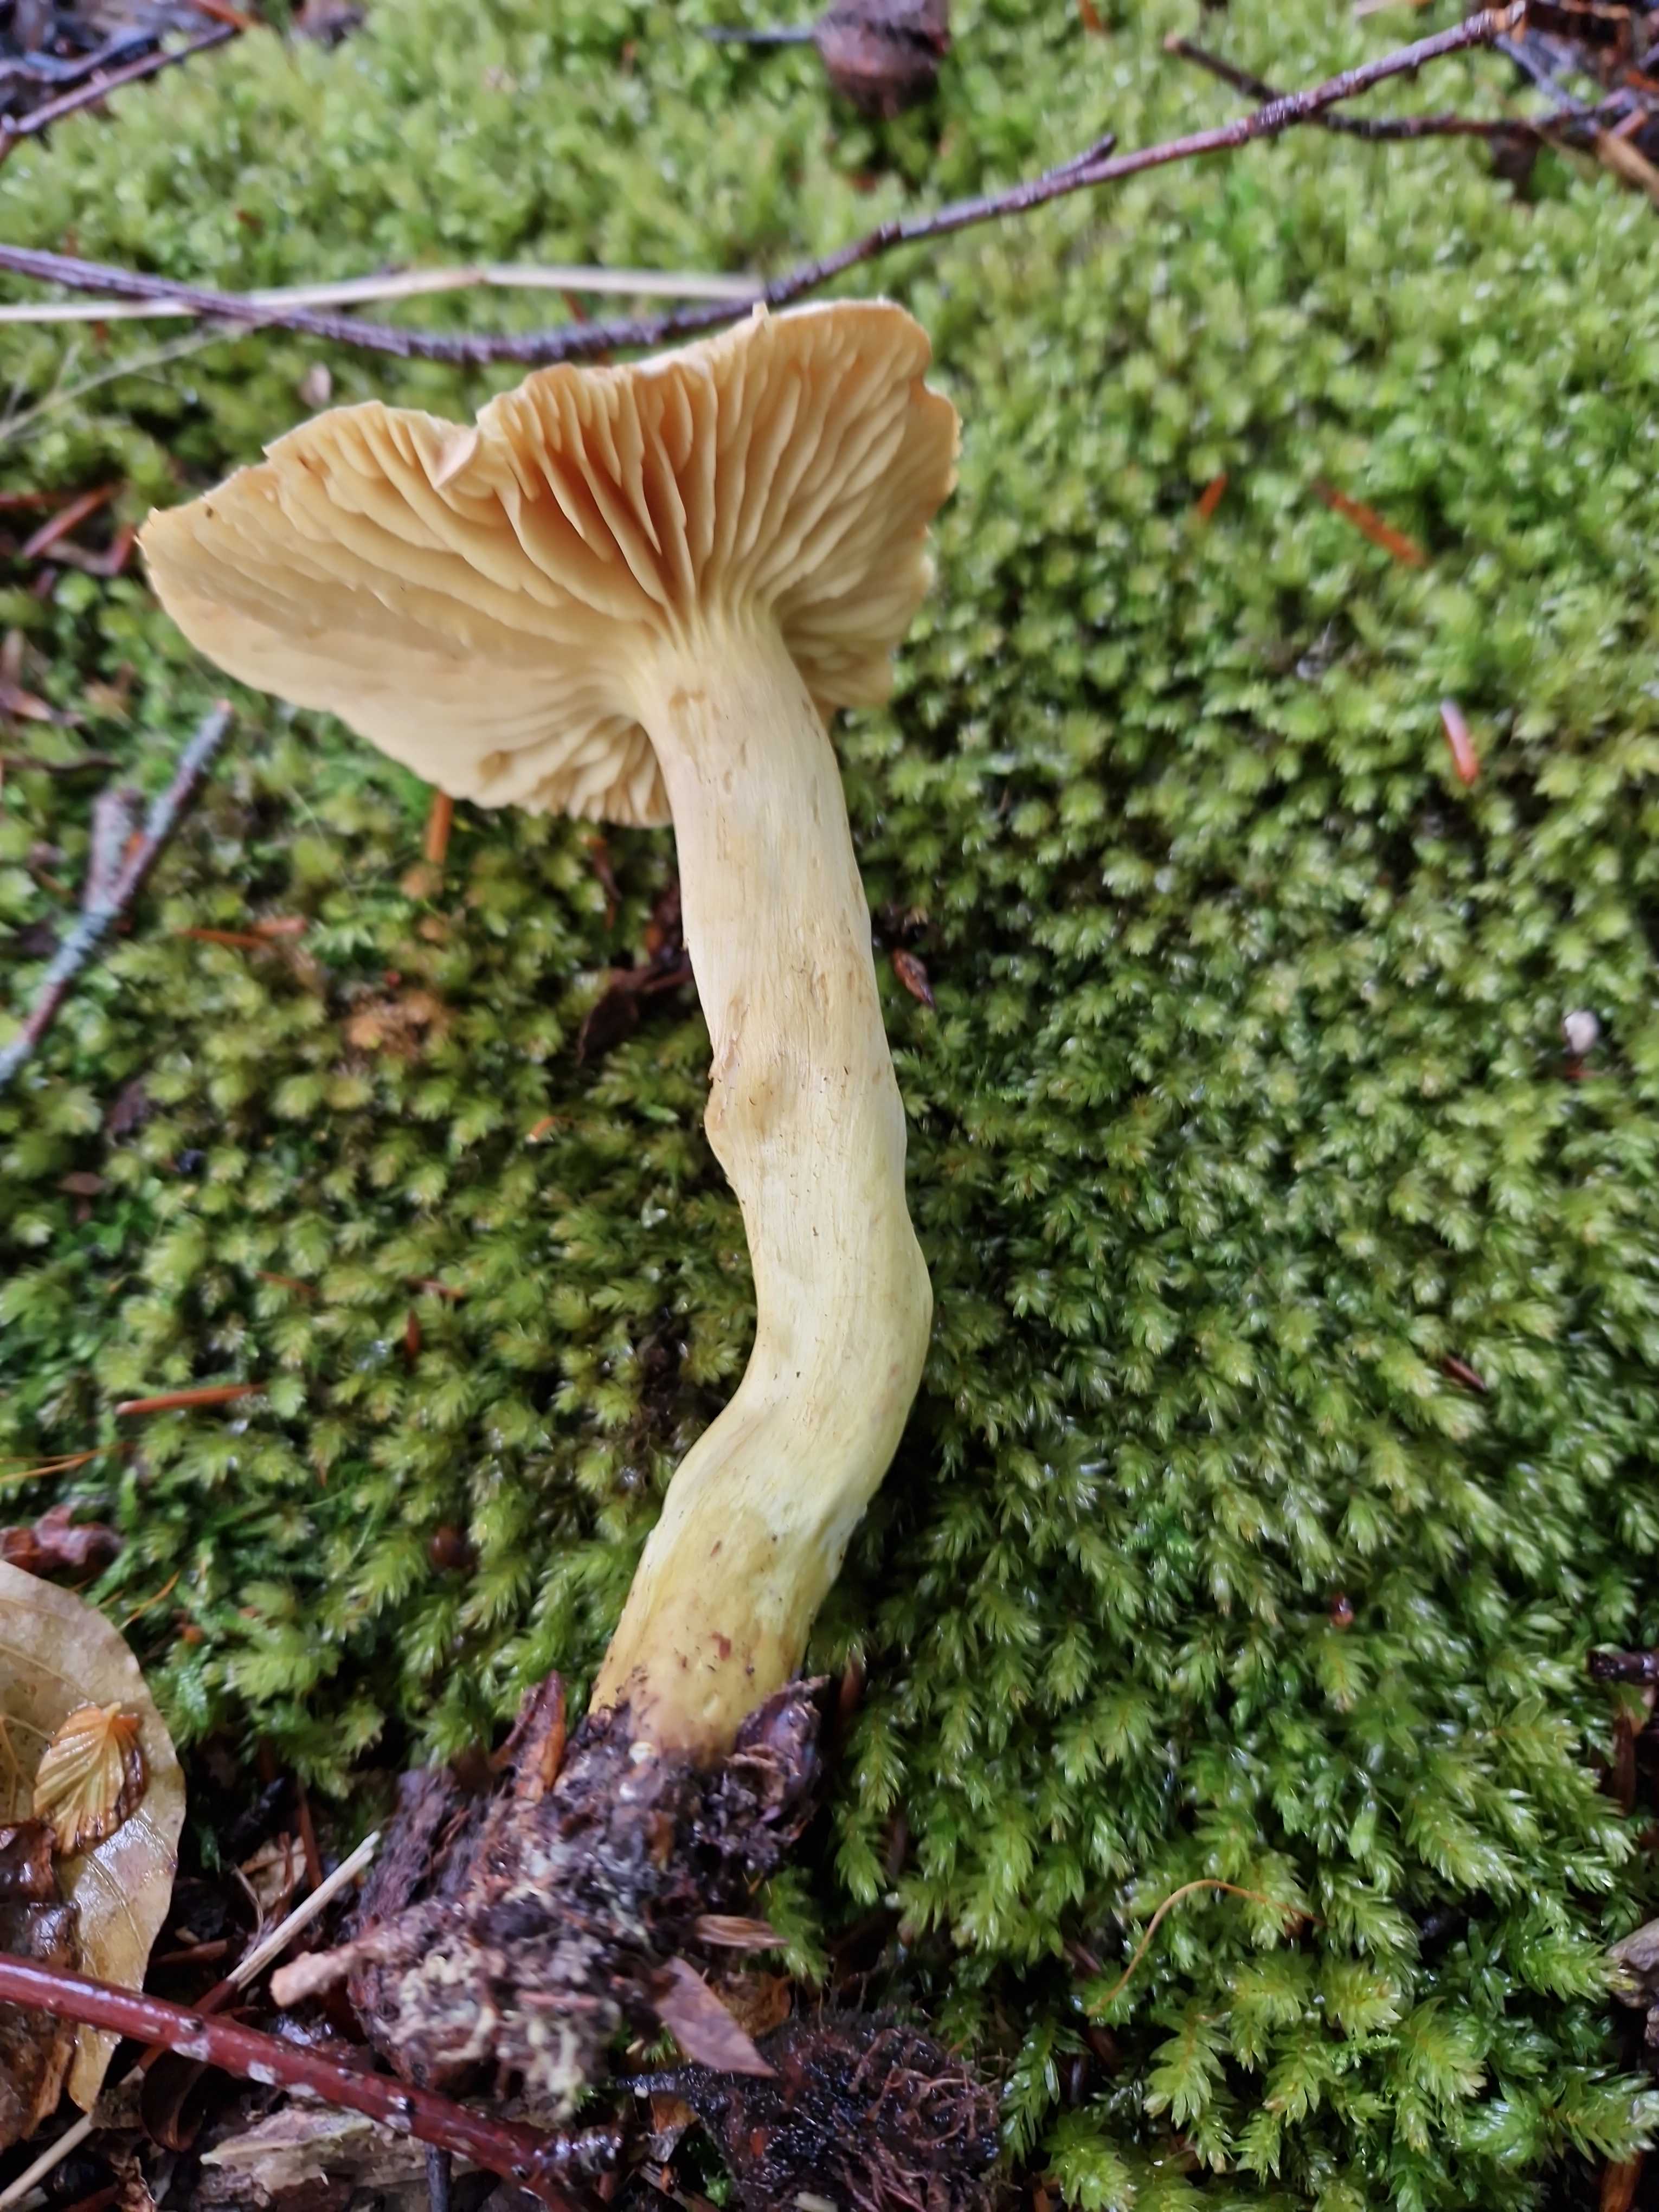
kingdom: Fungi
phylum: Basidiomycota
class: Agaricomycetes
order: Agaricales
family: Tricholomataceae
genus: Tricholoma
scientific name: Tricholoma sulphureum
